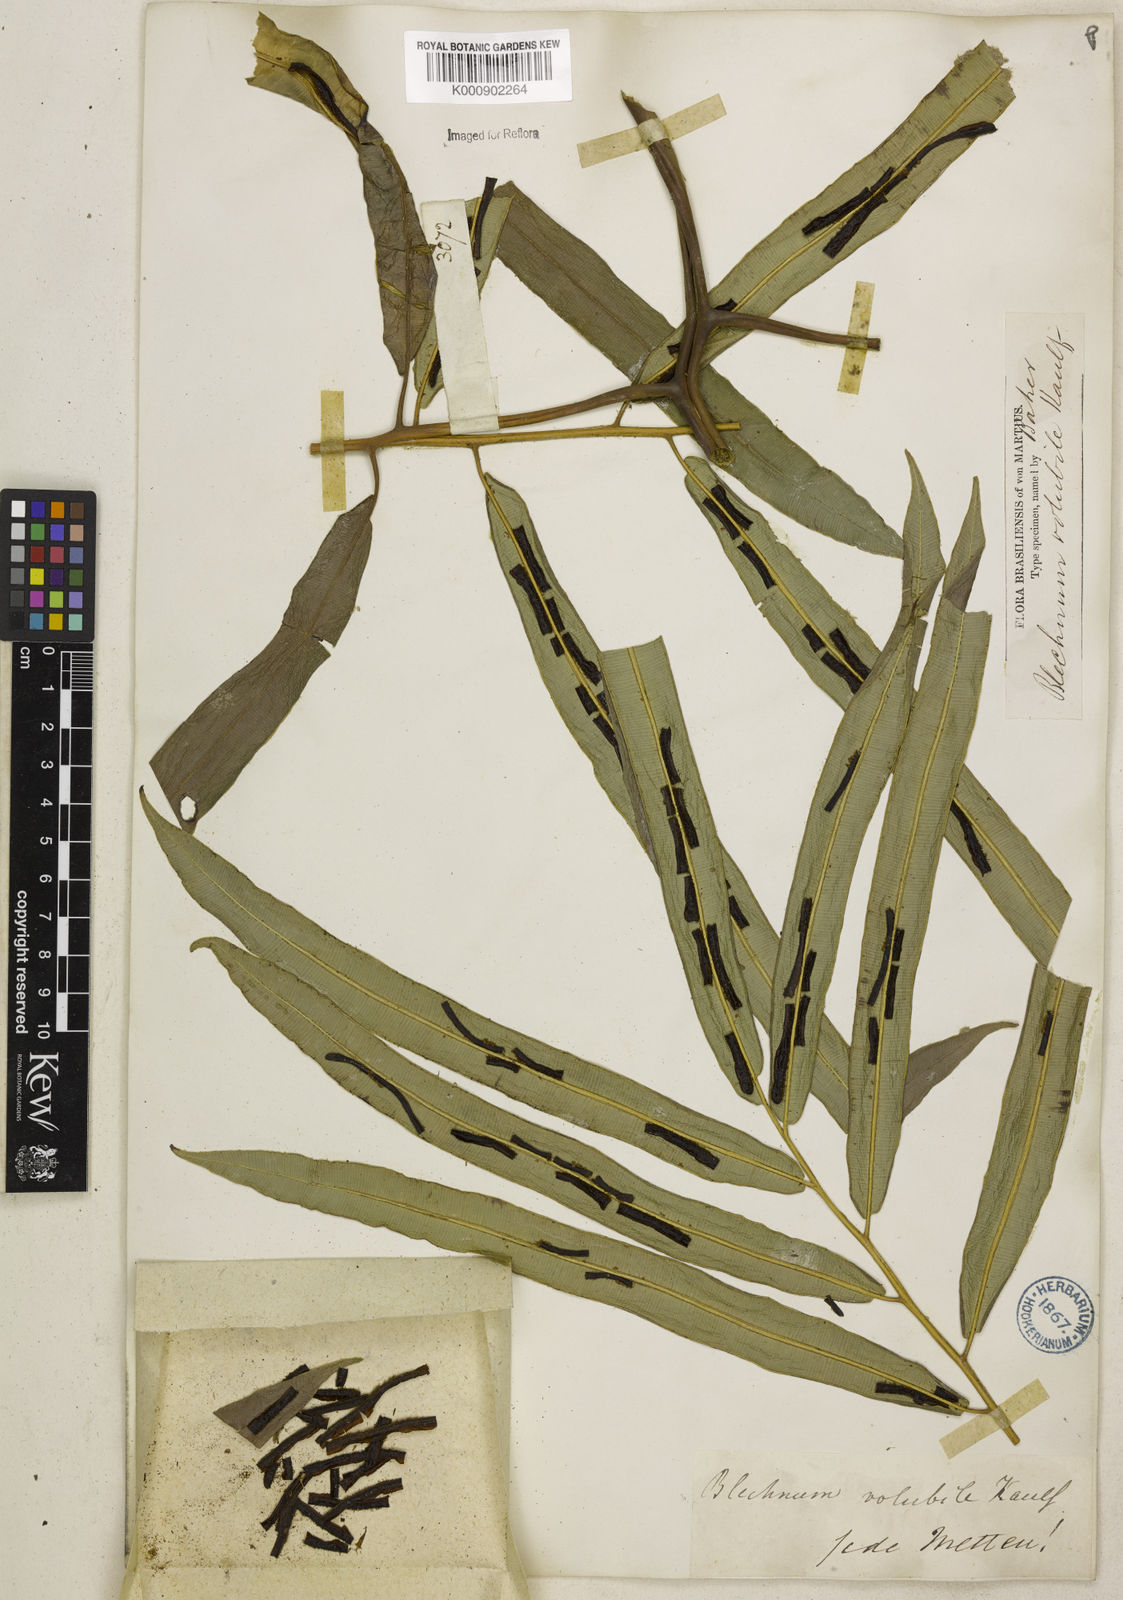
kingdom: Plantae
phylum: Tracheophyta
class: Polypodiopsida
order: Polypodiales
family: Blechnaceae
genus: Salpichlaena
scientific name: Salpichlaena volubilis
